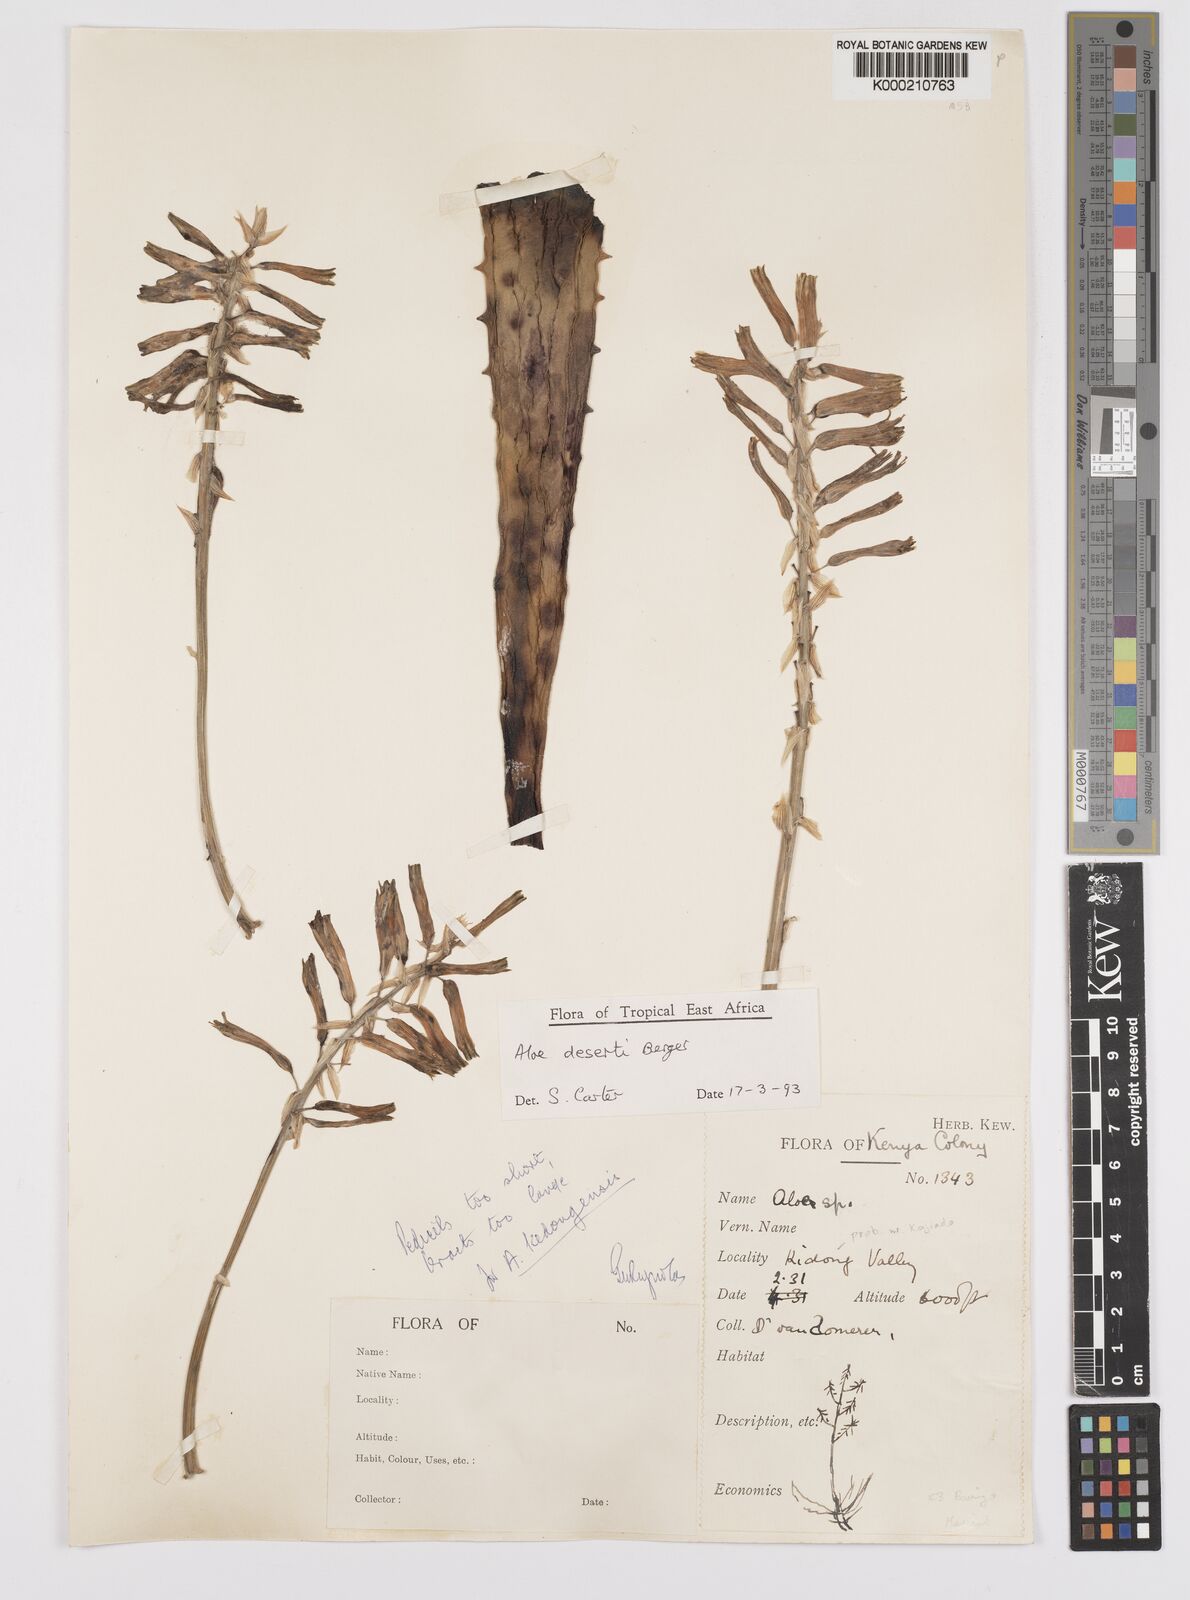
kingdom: Plantae
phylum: Tracheophyta
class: Liliopsida
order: Asparagales
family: Asphodelaceae
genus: Aloe
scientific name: Aloe deserti
